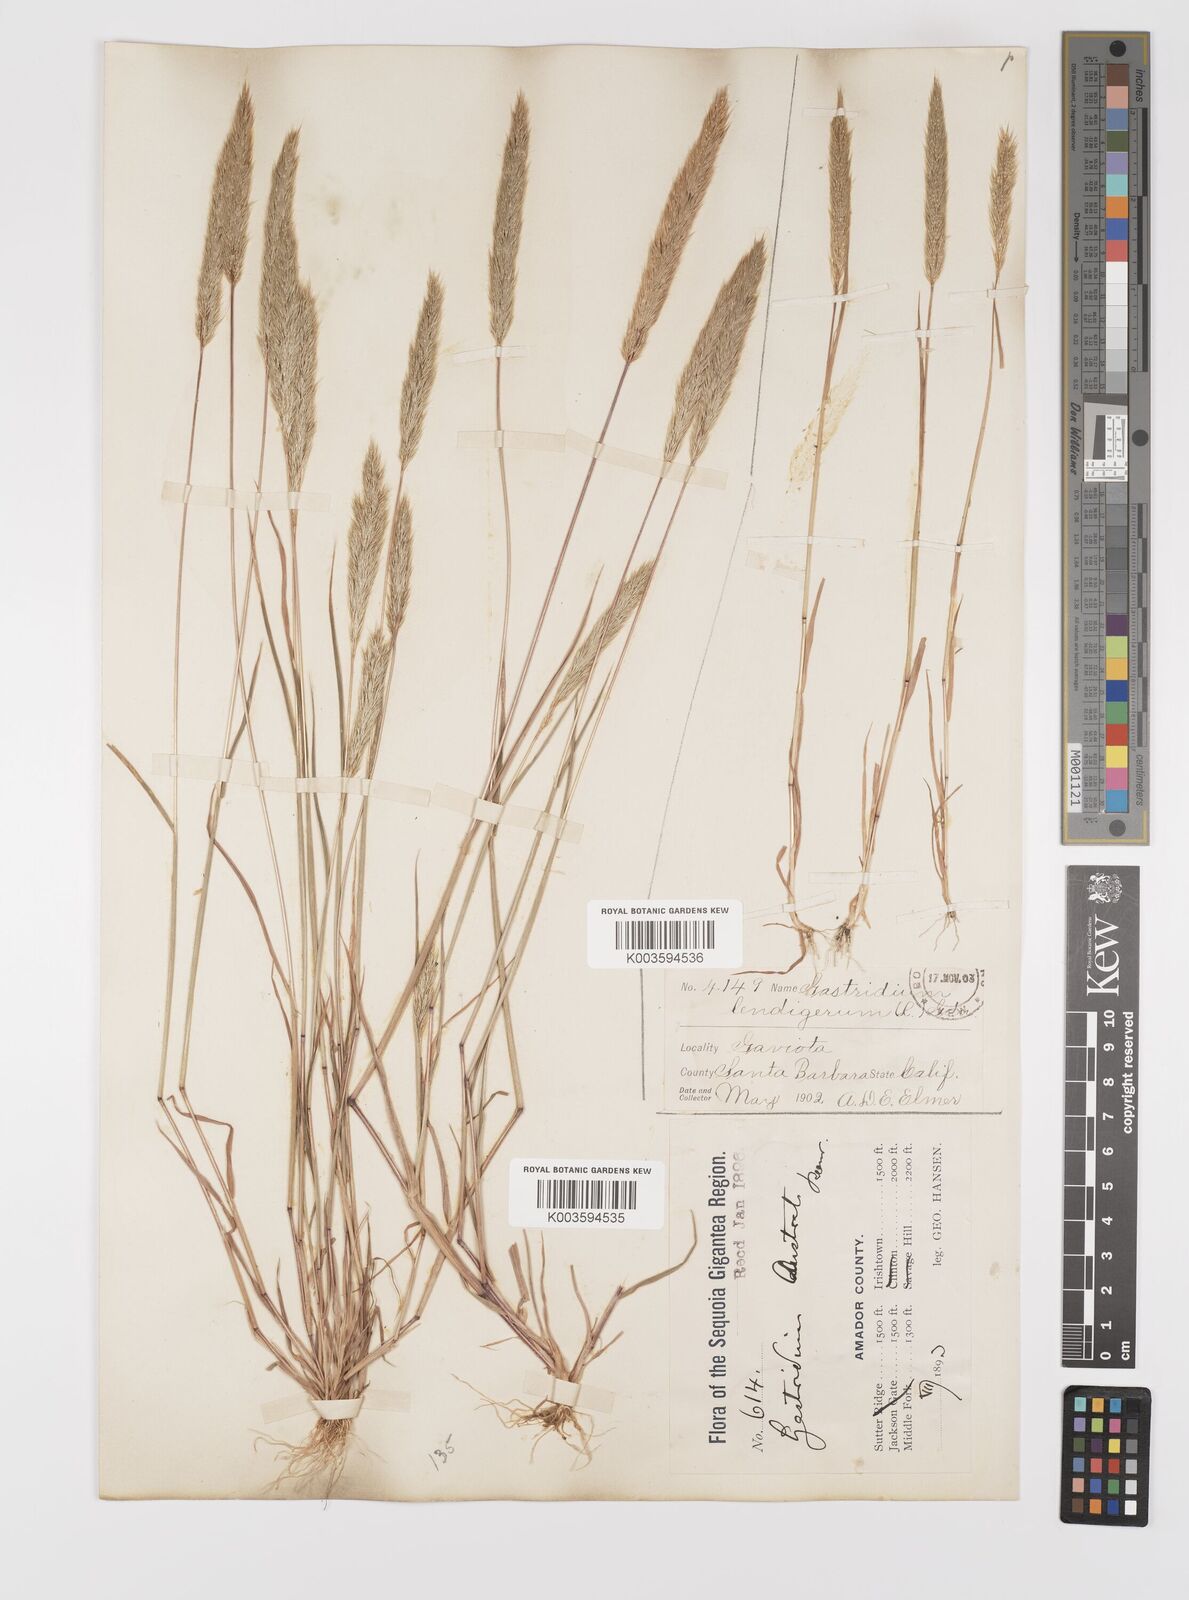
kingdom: Plantae
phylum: Tracheophyta
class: Liliopsida
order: Poales
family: Poaceae
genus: Gastridium
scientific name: Gastridium phleoides
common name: Nit grass
